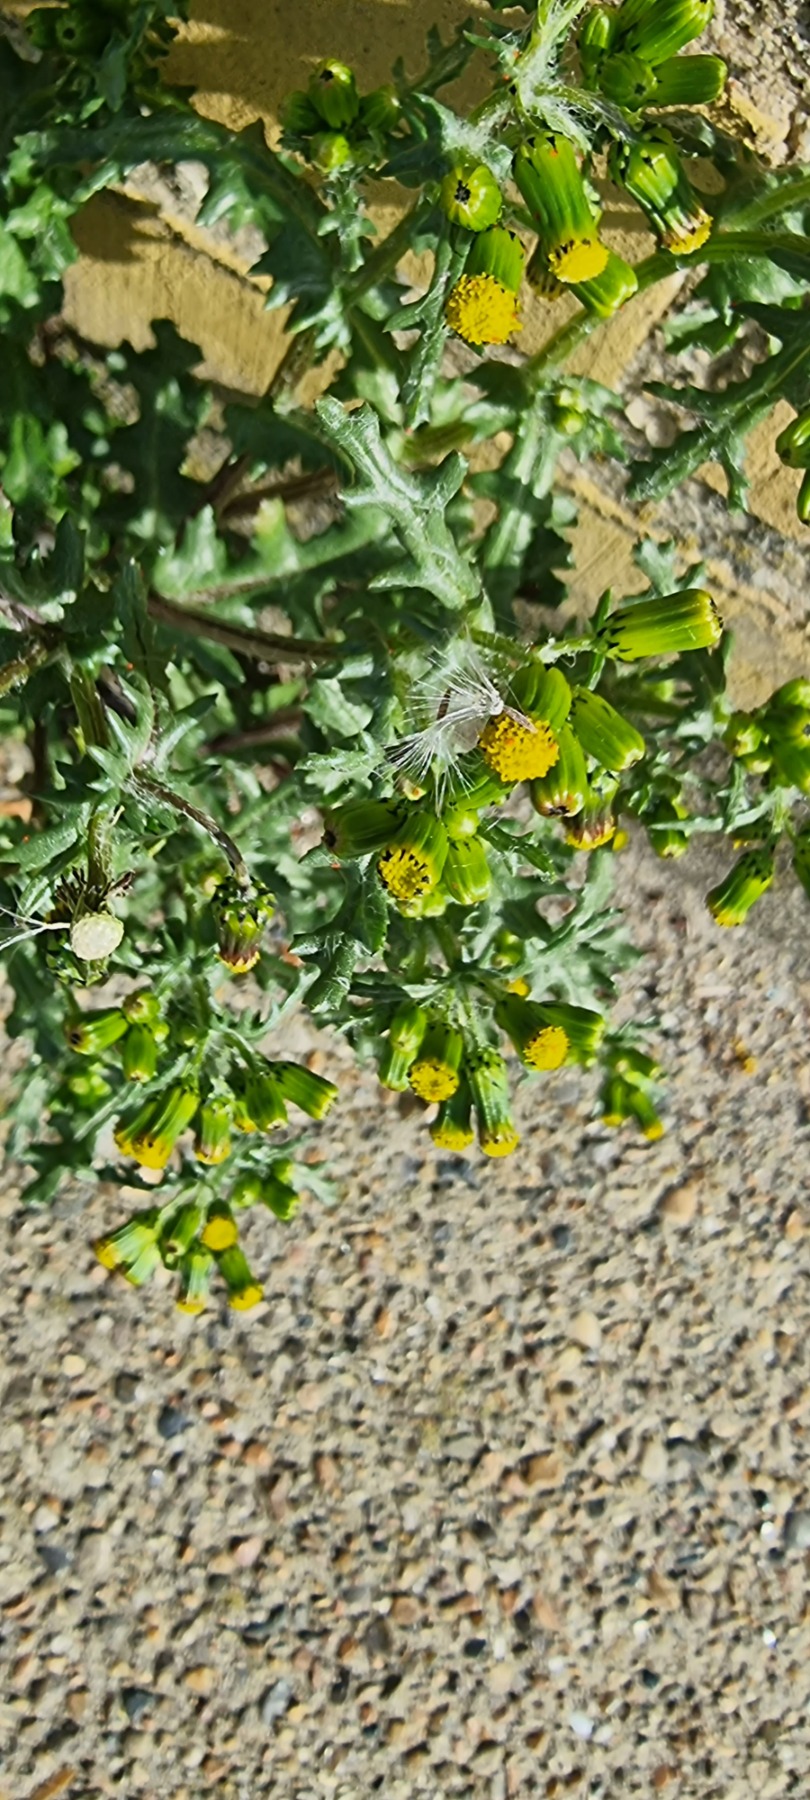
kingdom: Plantae
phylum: Tracheophyta
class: Magnoliopsida
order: Asterales
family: Asteraceae
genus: Senecio
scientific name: Senecio vulgaris
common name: Almindelig brandbæger
